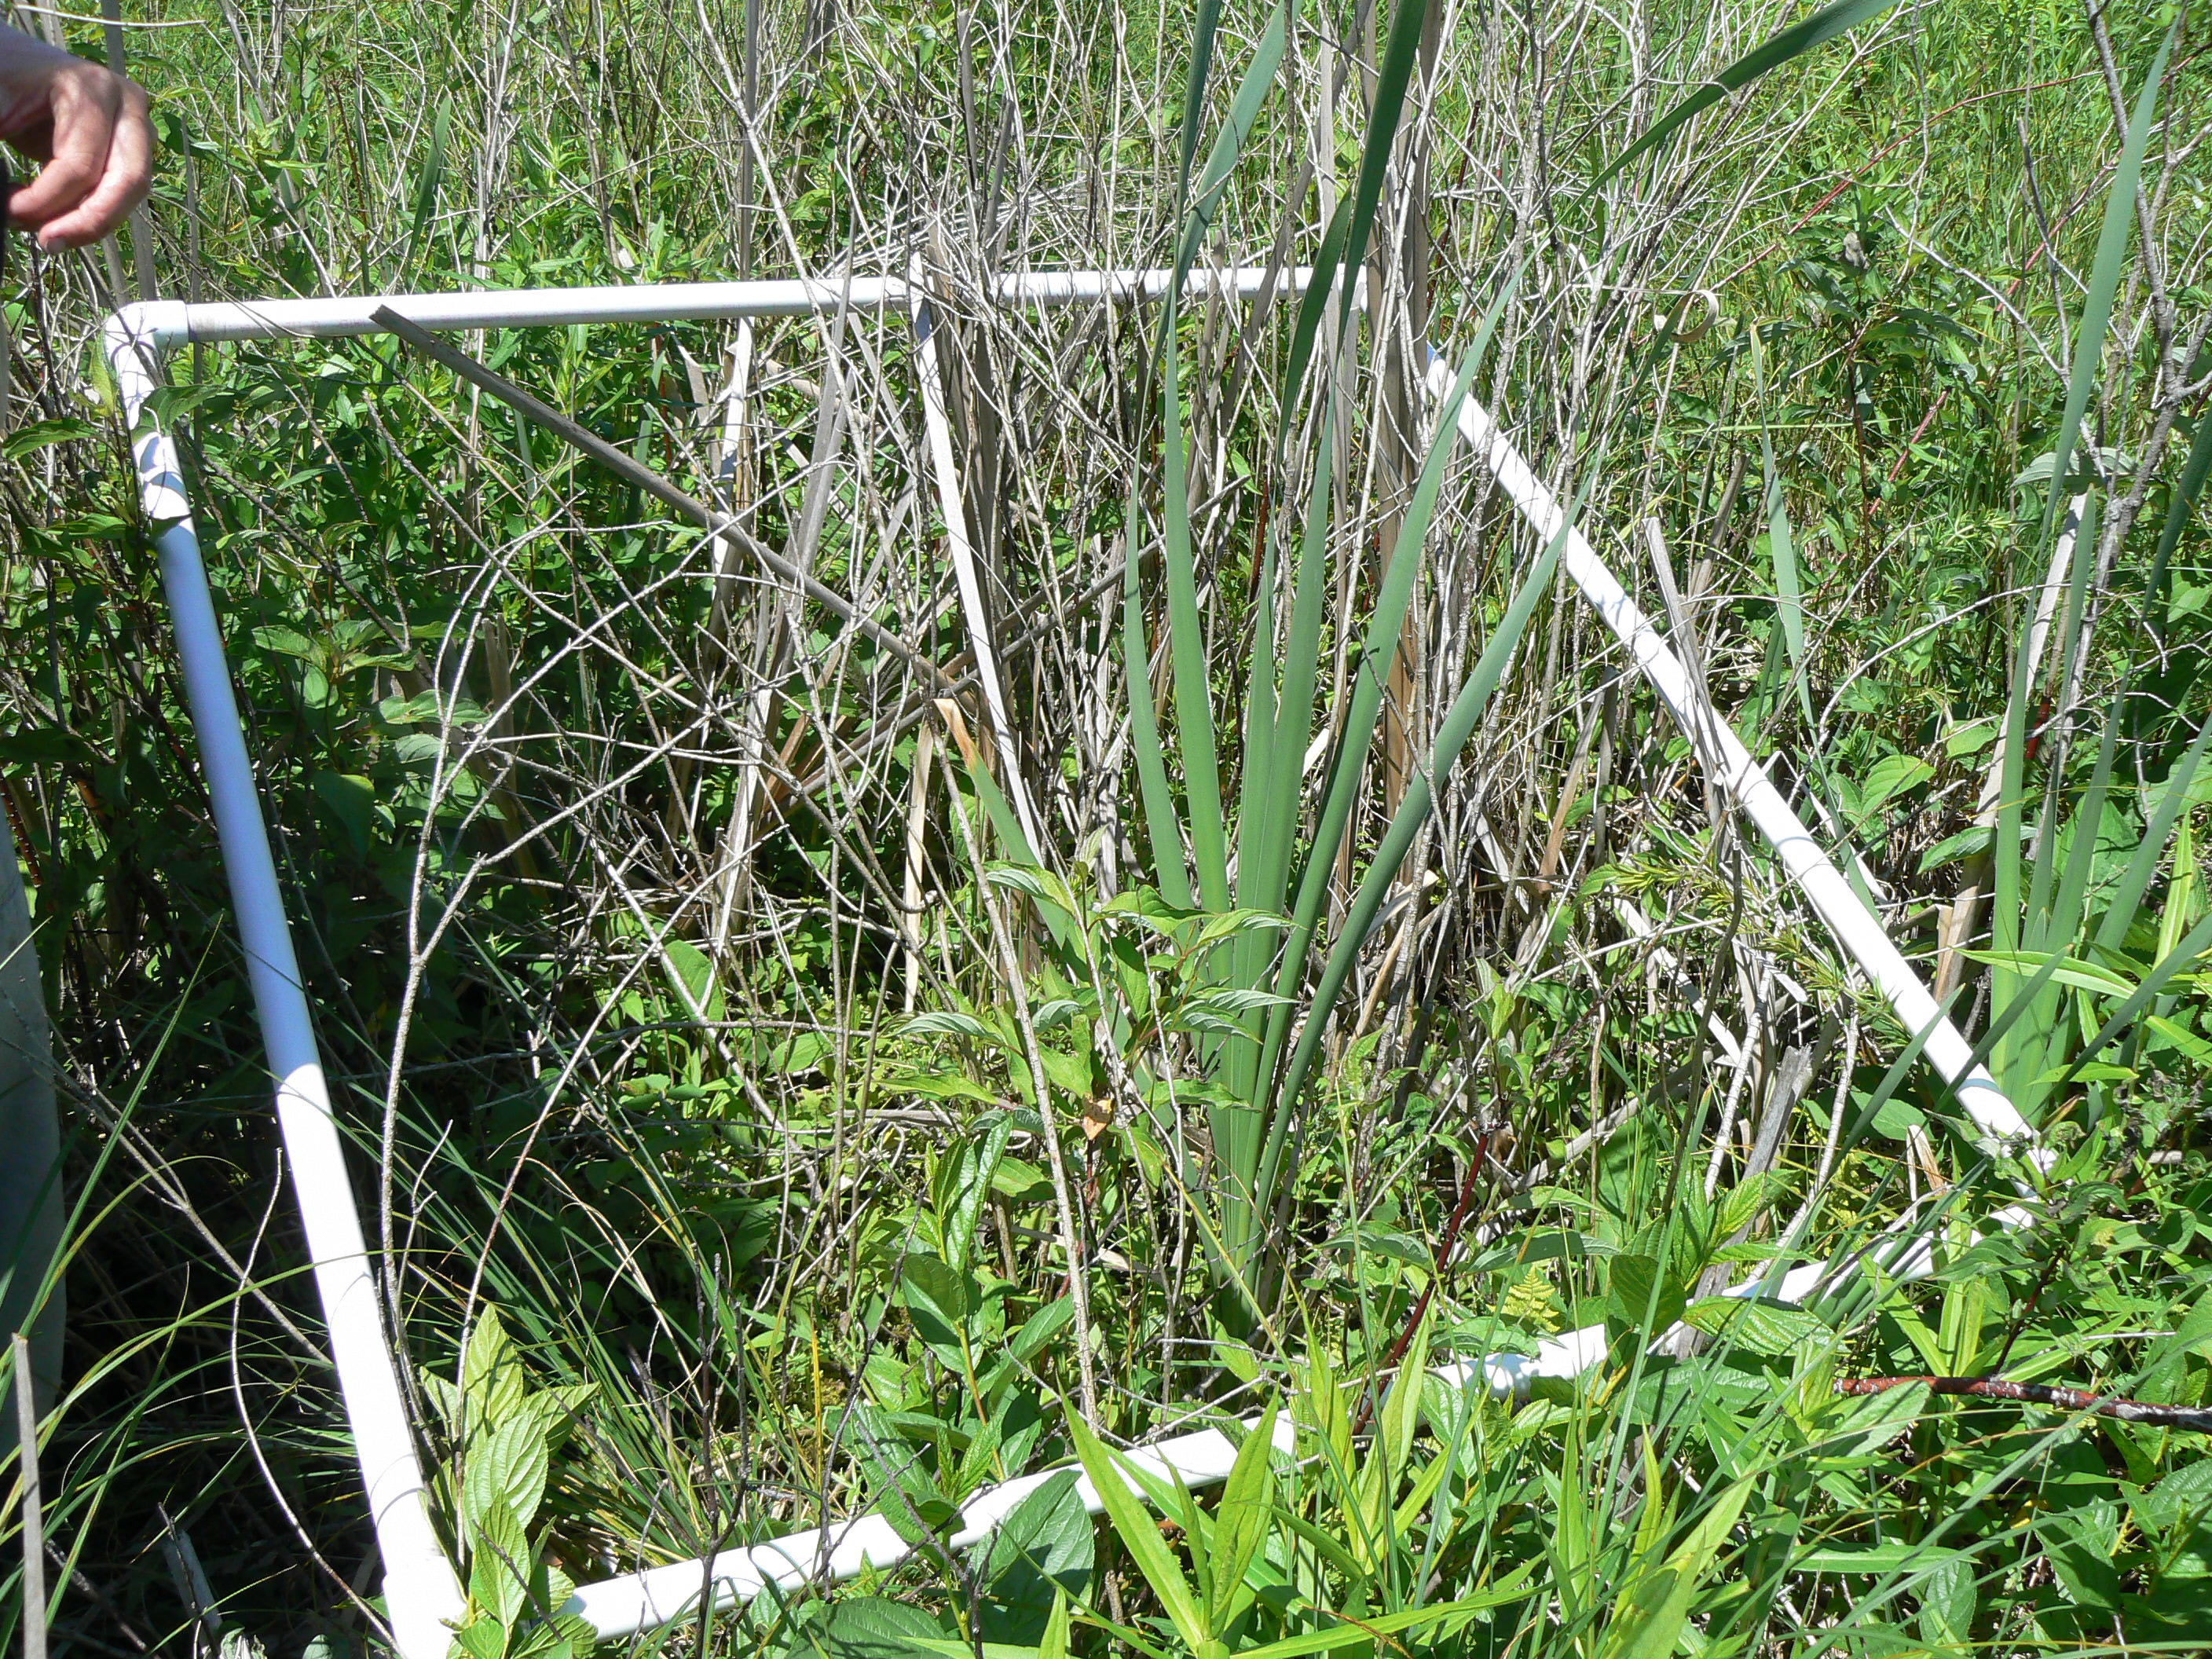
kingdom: Plantae
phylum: Tracheophyta
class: Magnoliopsida
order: Lamiales
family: Lamiaceae
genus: Pycnanthemum
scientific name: Pycnanthemum virginianum
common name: Virginia mountain-mint
